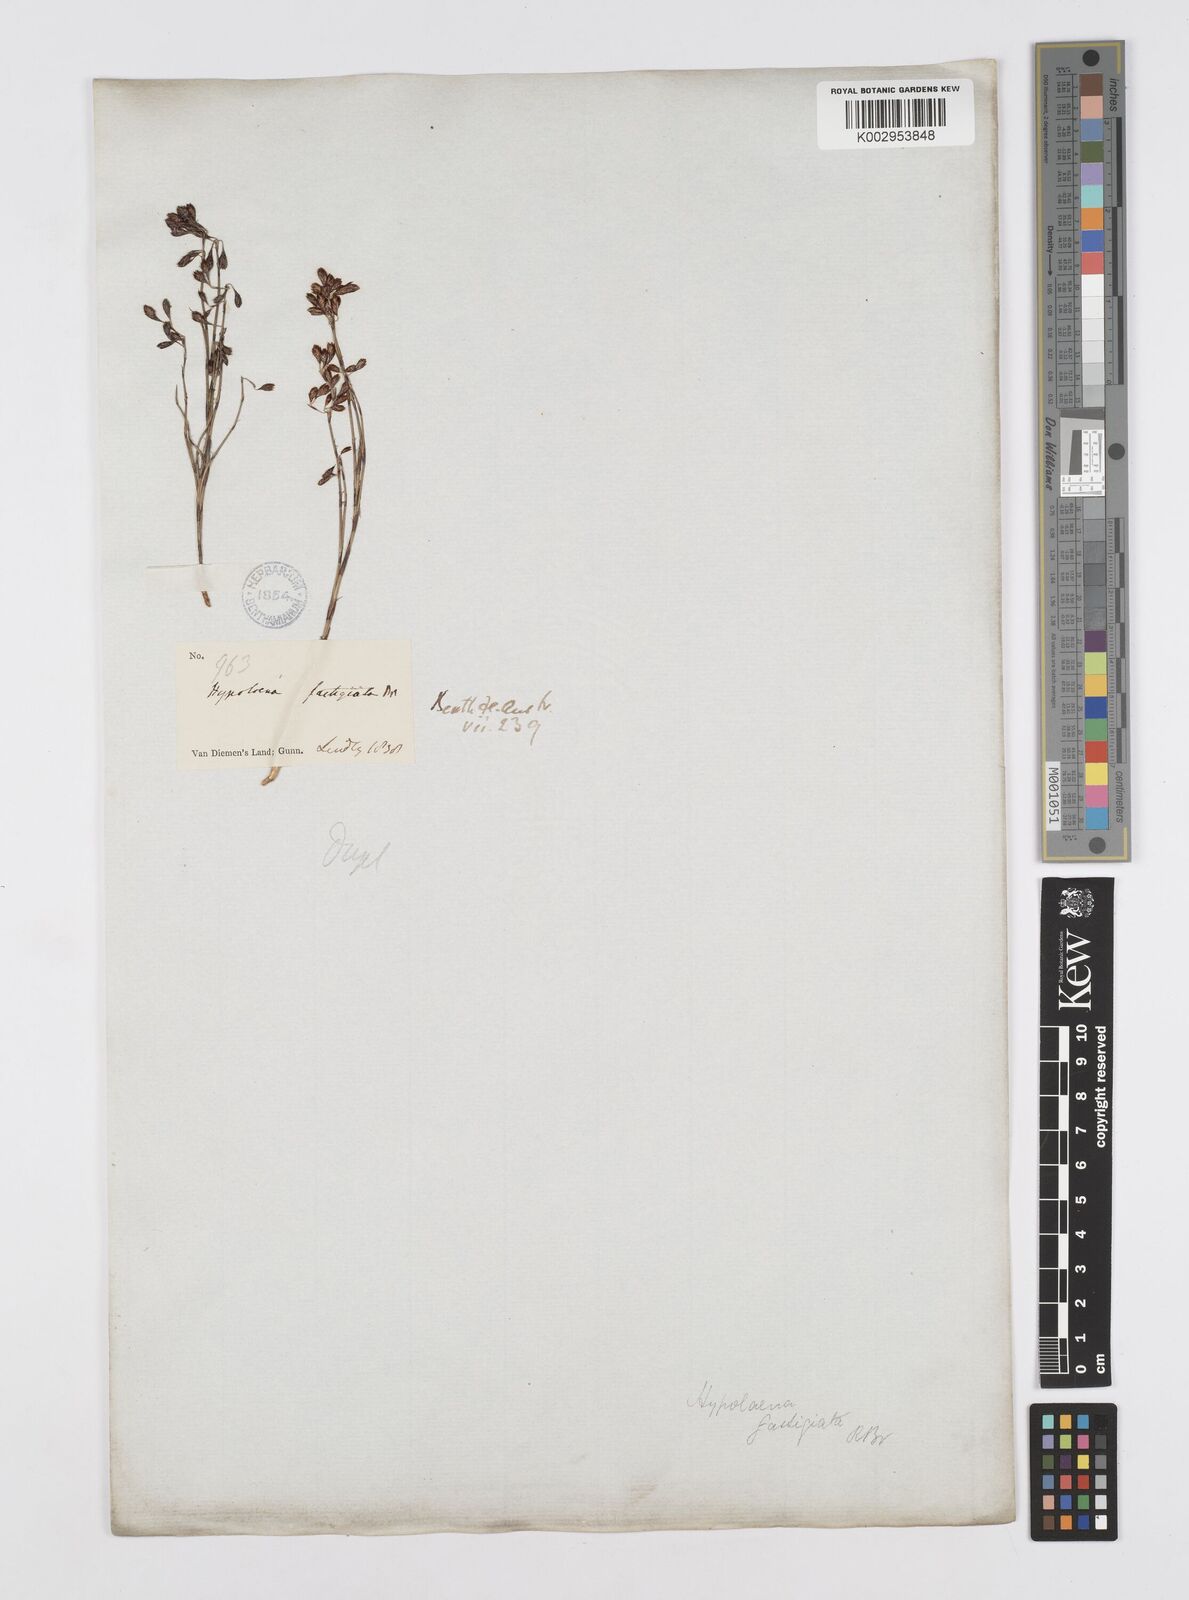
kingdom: Plantae
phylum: Tracheophyta
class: Liliopsida
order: Poales
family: Restionaceae
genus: Hypolaena
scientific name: Hypolaena fastigiata
